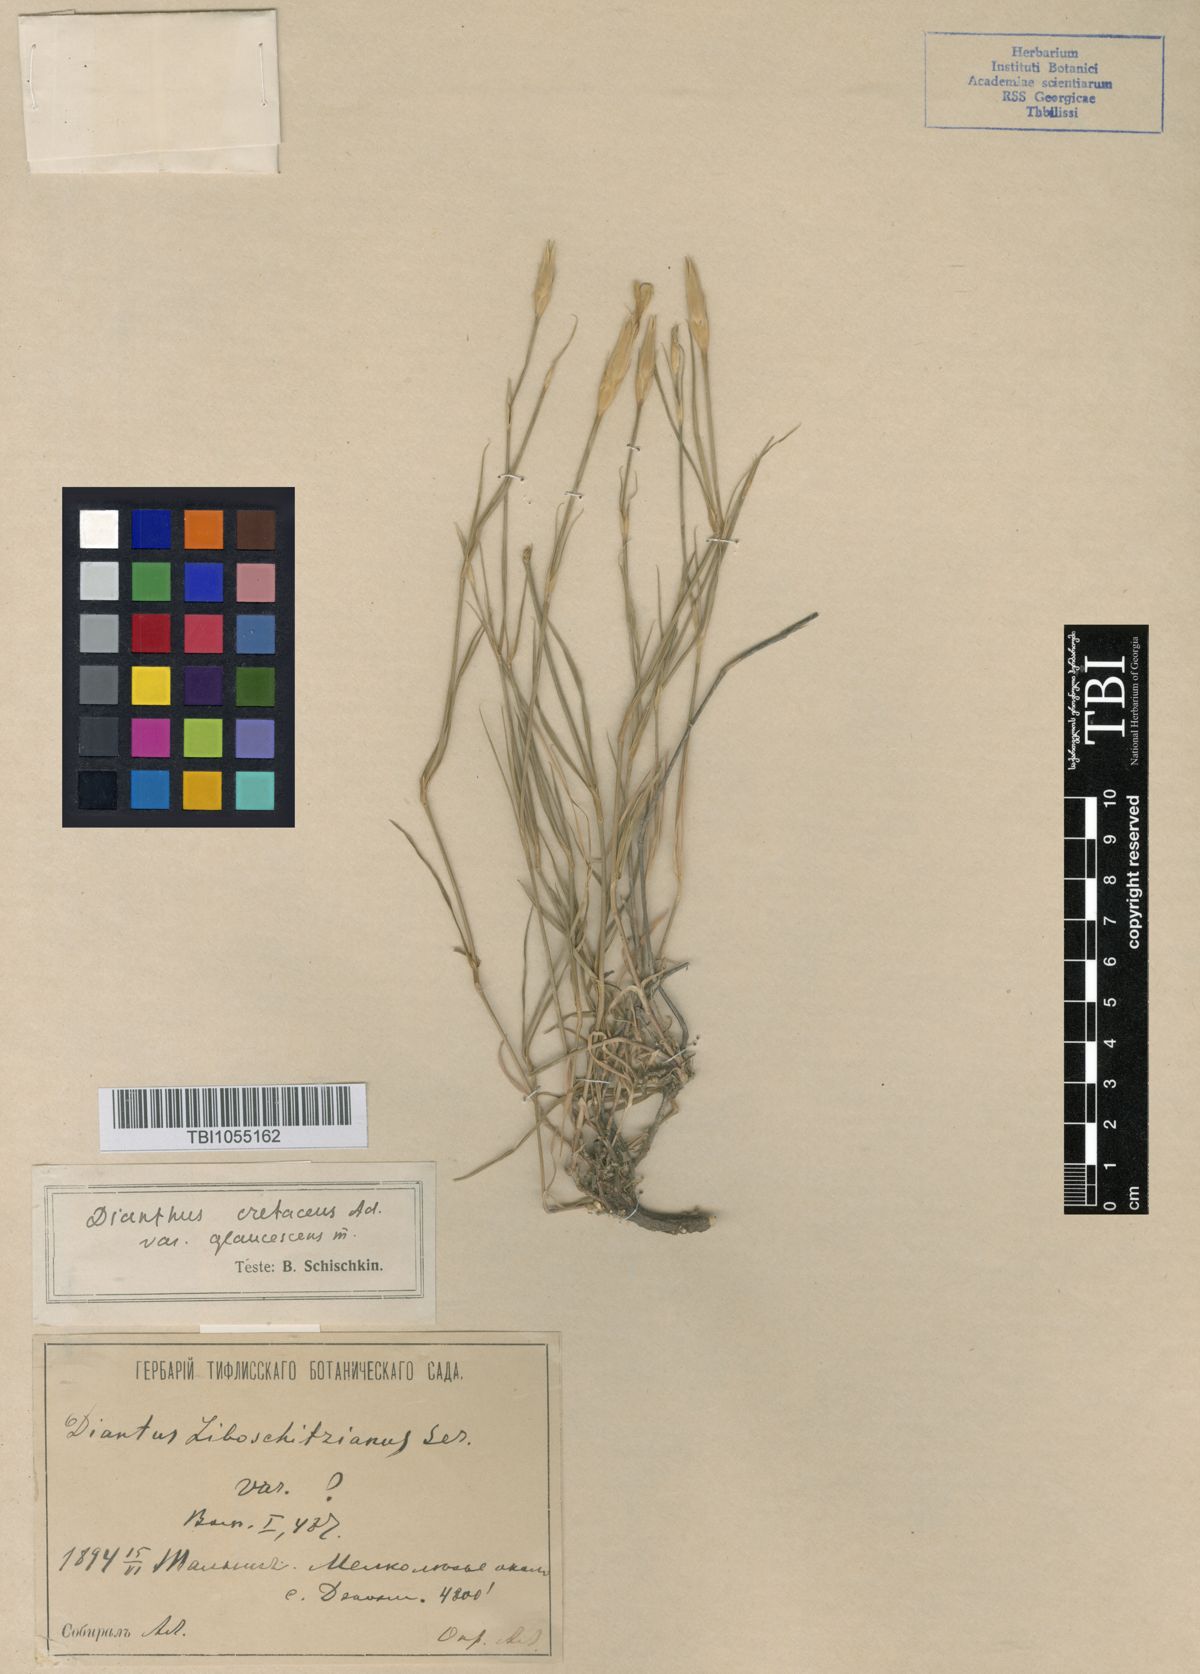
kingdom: Plantae
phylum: Tracheophyta
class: Magnoliopsida
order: Caryophyllales
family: Caryophyllaceae
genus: Dianthus
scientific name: Dianthus cretaceus
